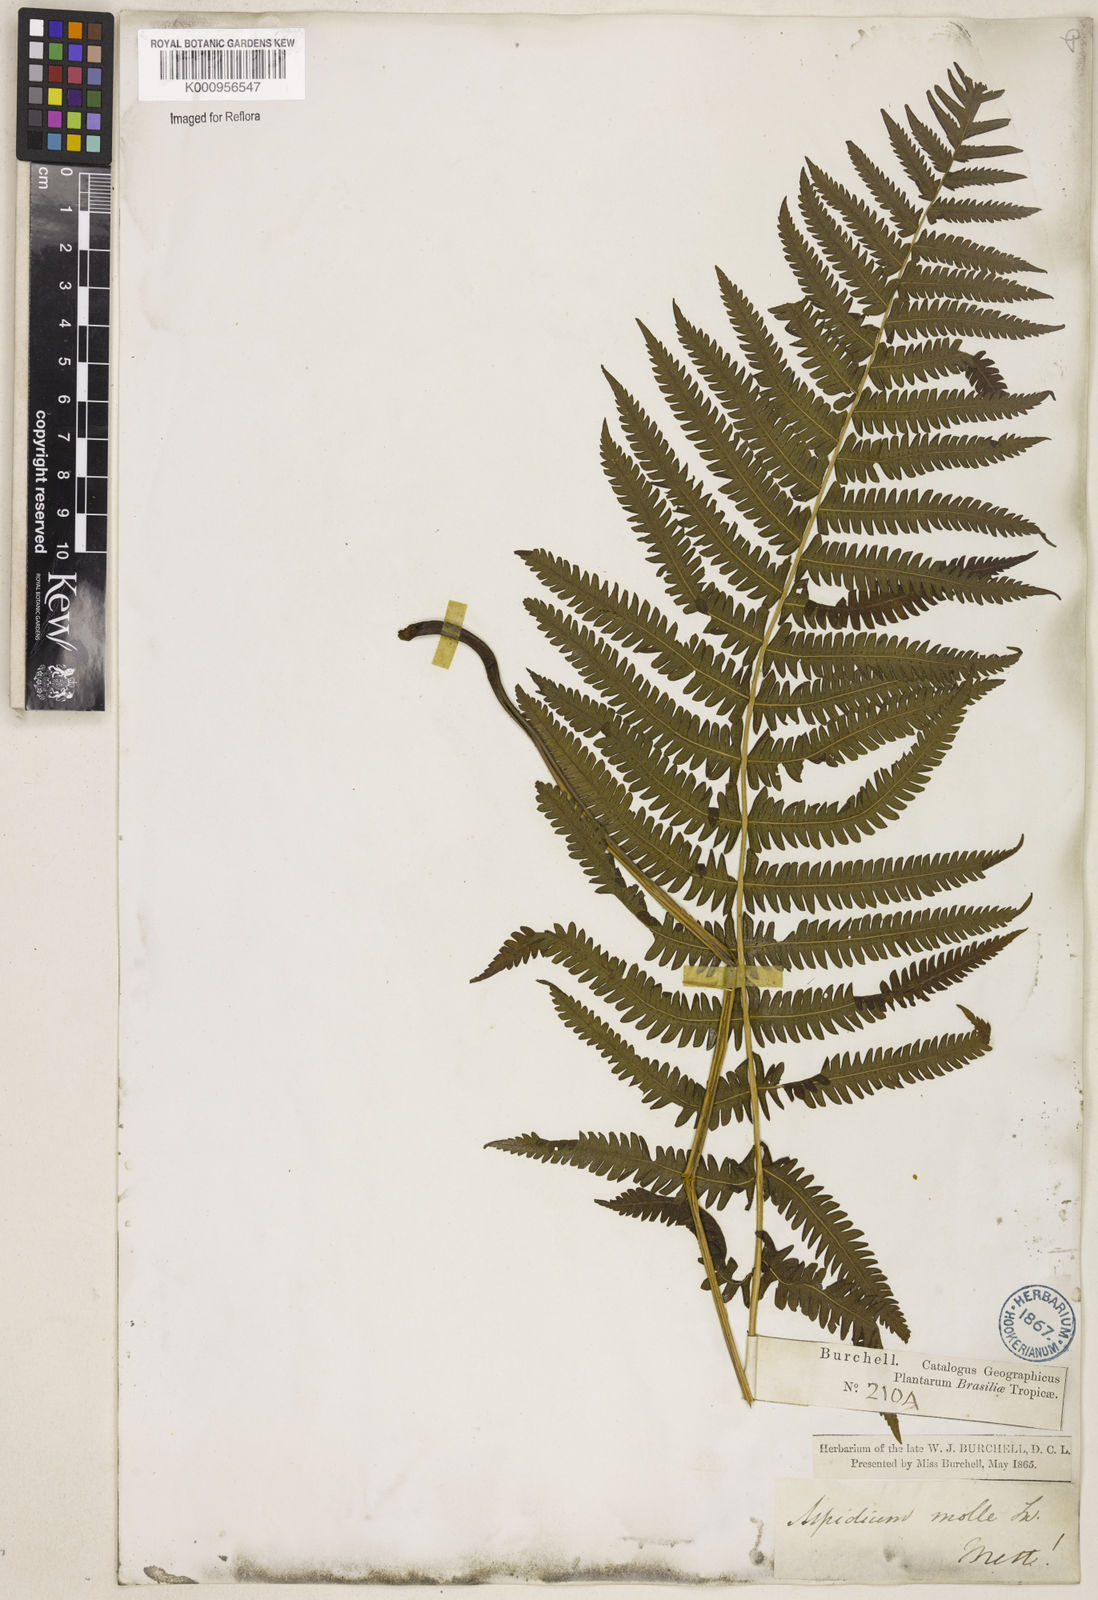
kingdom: Plantae
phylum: Tracheophyta
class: Polypodiopsida
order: Polypodiales
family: Thelypteridaceae
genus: Christella
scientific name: Christella hispidula
